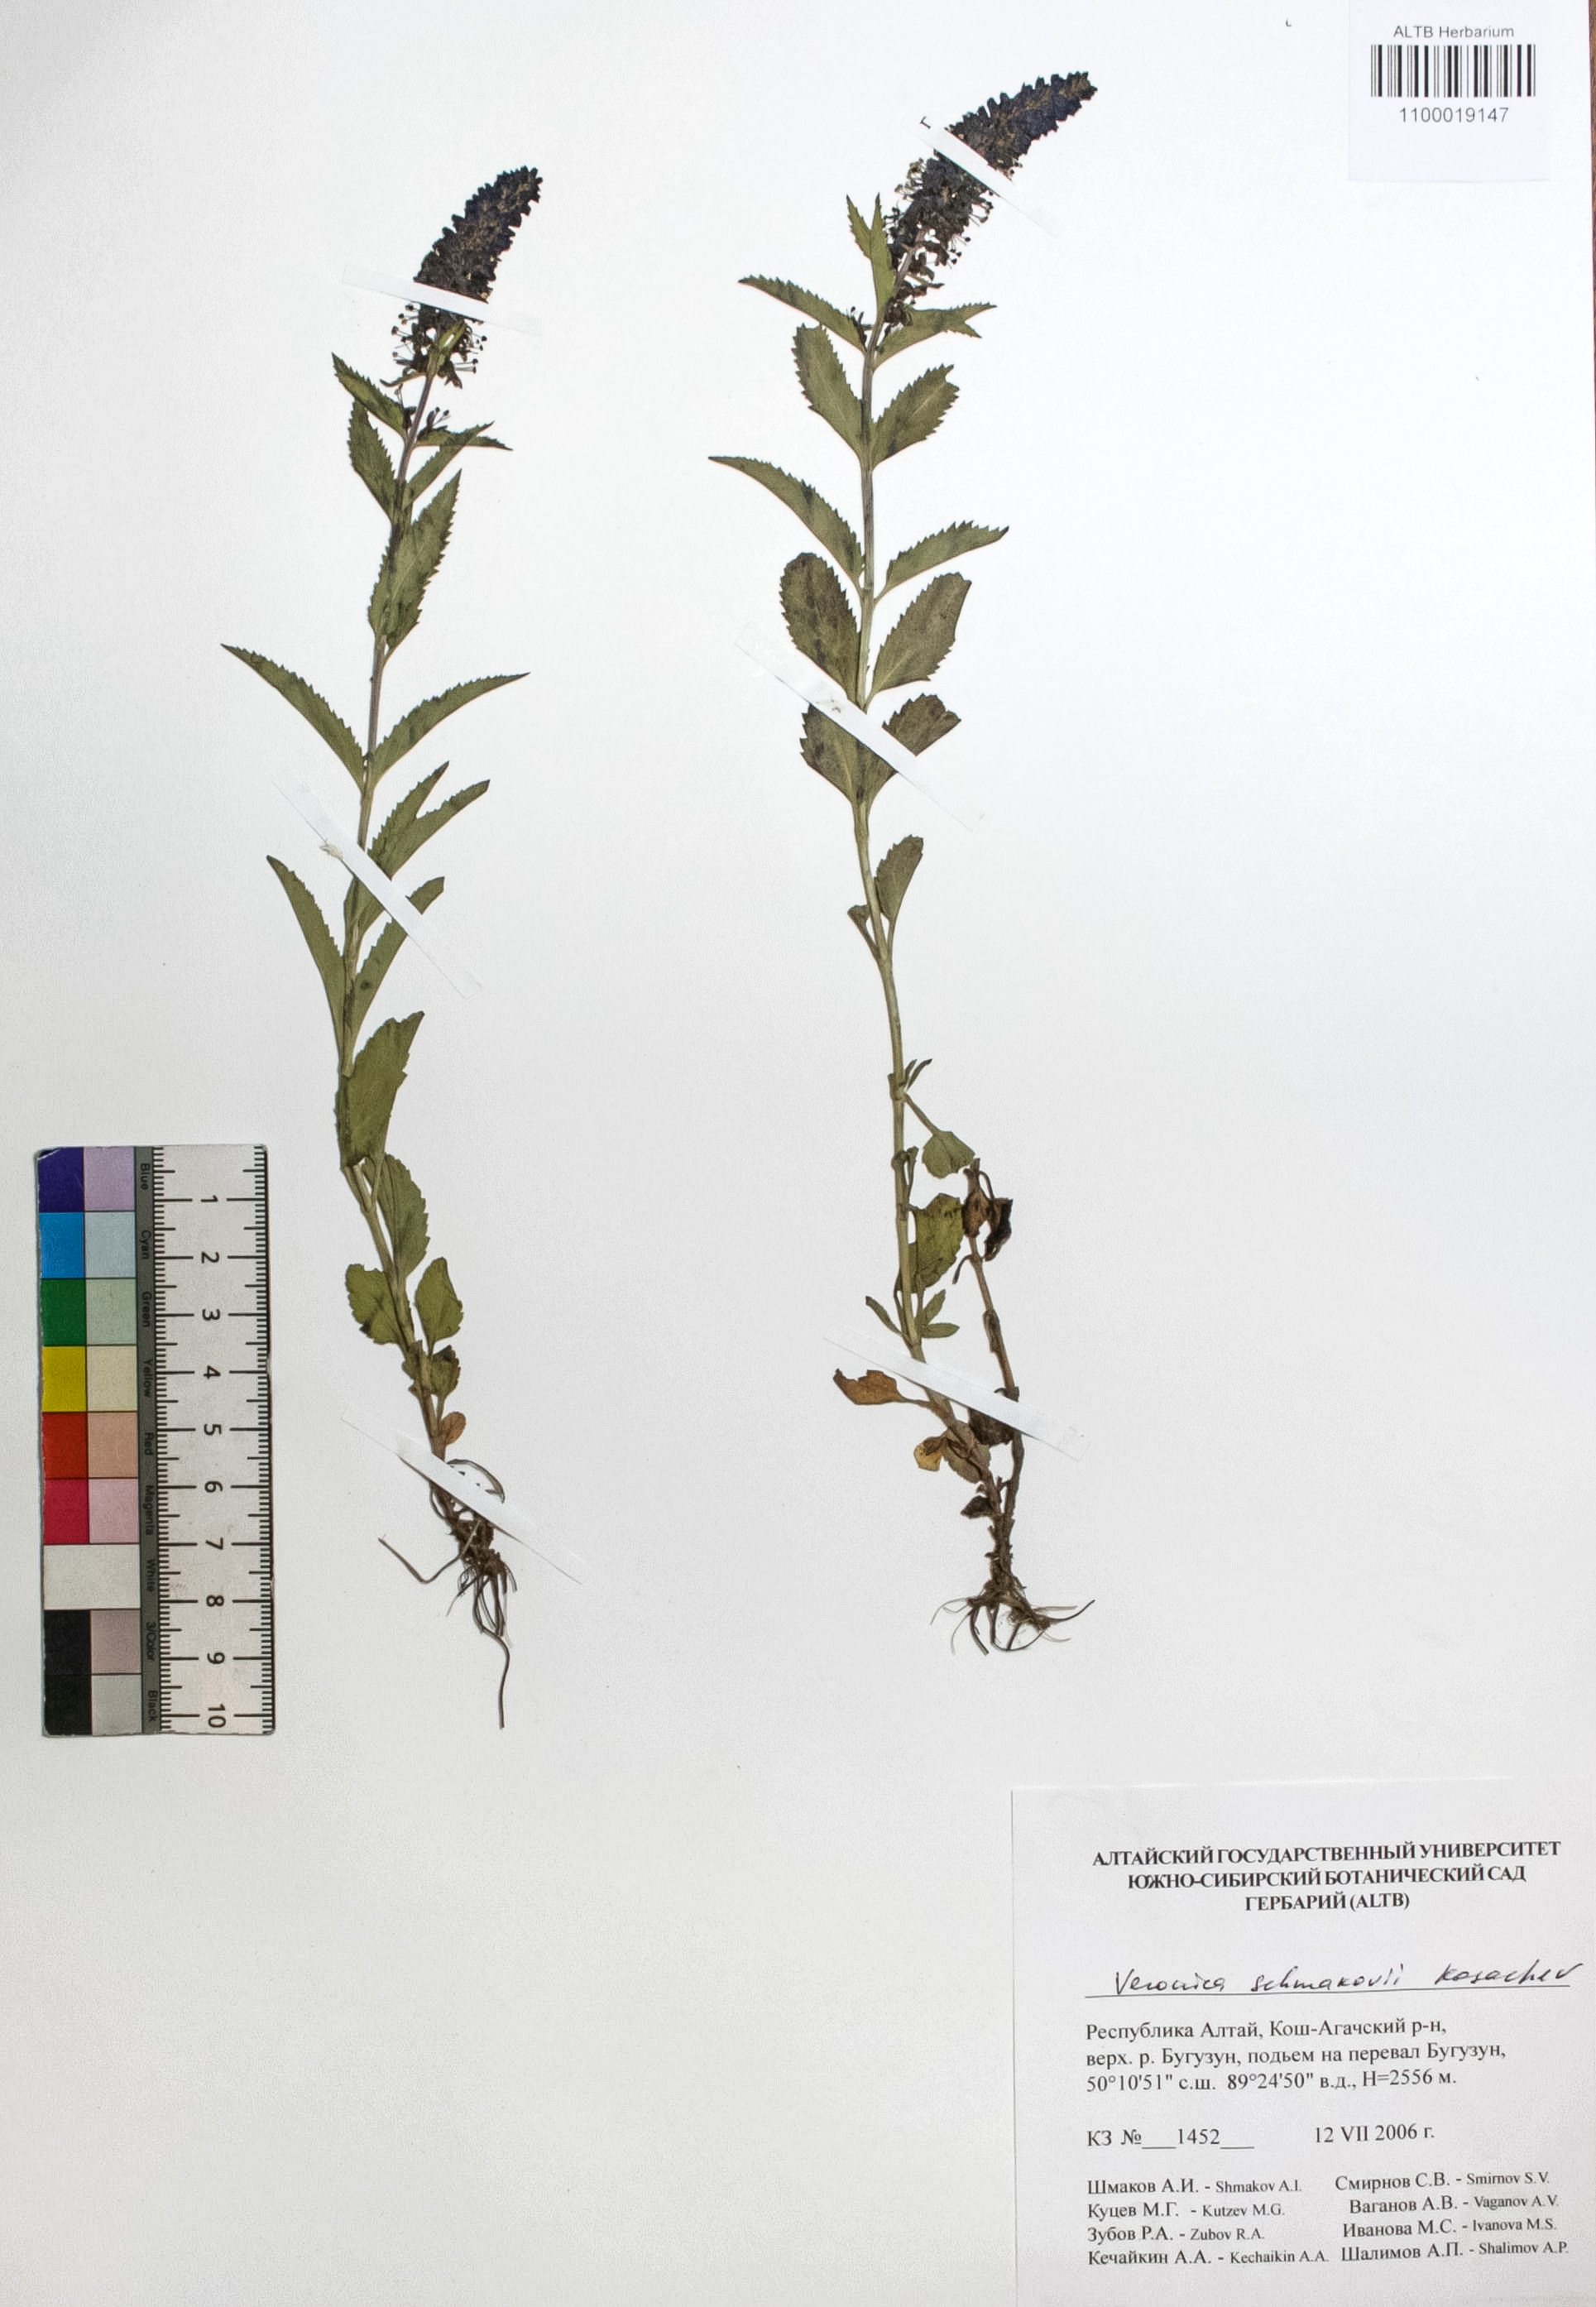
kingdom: Plantae
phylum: Tracheophyta
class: Magnoliopsida
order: Lamiales
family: Plantaginaceae
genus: Veronica
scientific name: Veronica schmakovii
